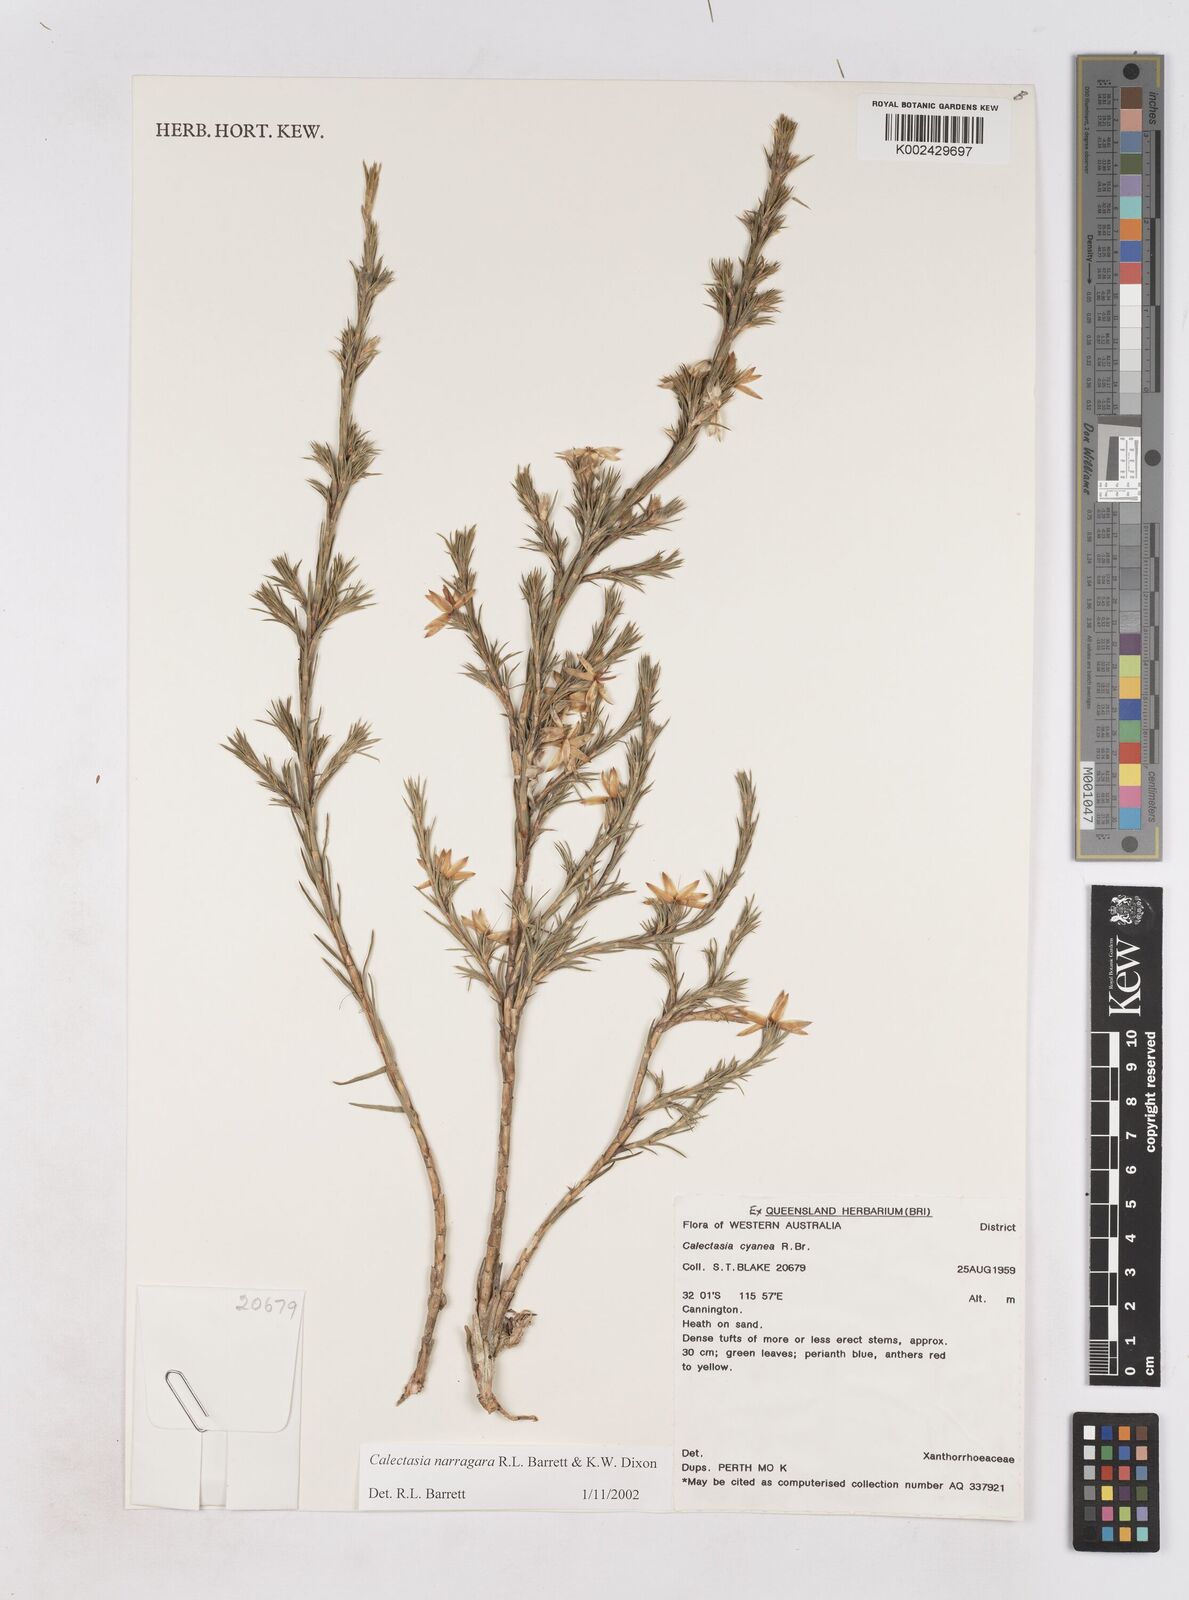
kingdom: Plantae
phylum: Tracheophyta
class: Liliopsida
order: Arecales
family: Dasypogonaceae
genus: Calectasia
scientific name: Calectasia narragara
